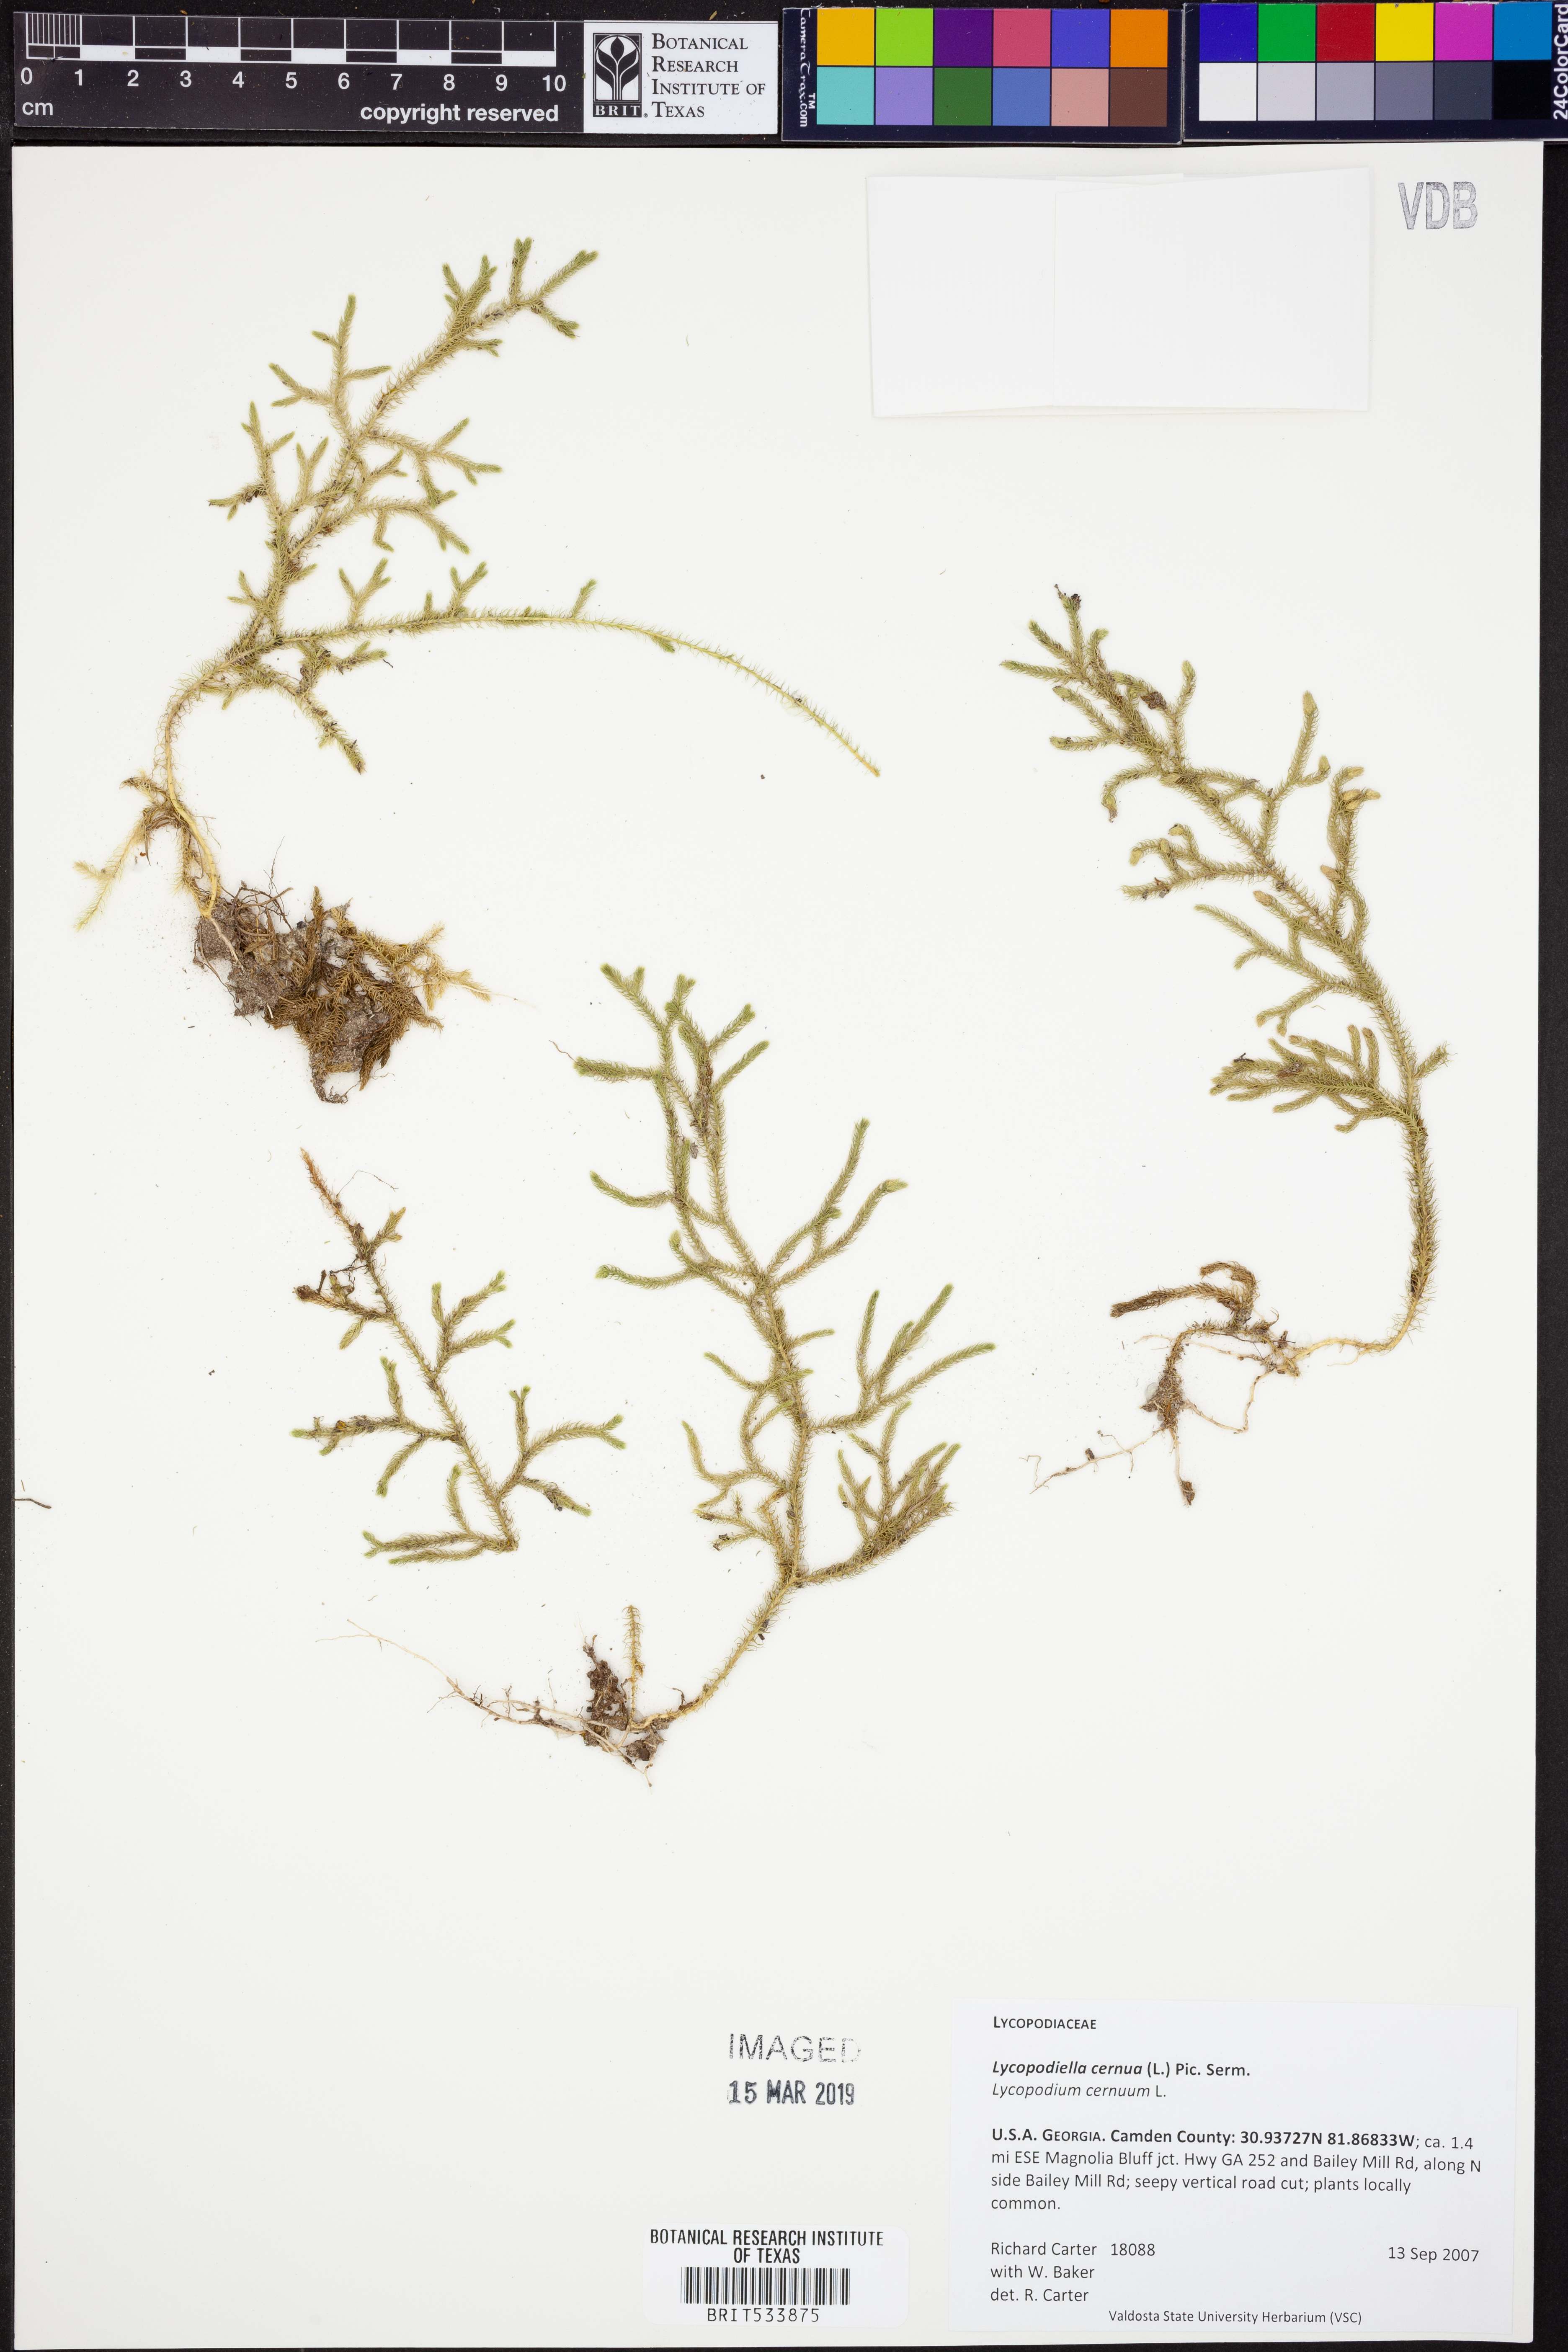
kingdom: Plantae
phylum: Tracheophyta
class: Lycopodiopsida
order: Lycopodiales
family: Lycopodiaceae
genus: Palhinhaea
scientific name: Palhinhaea cernua
